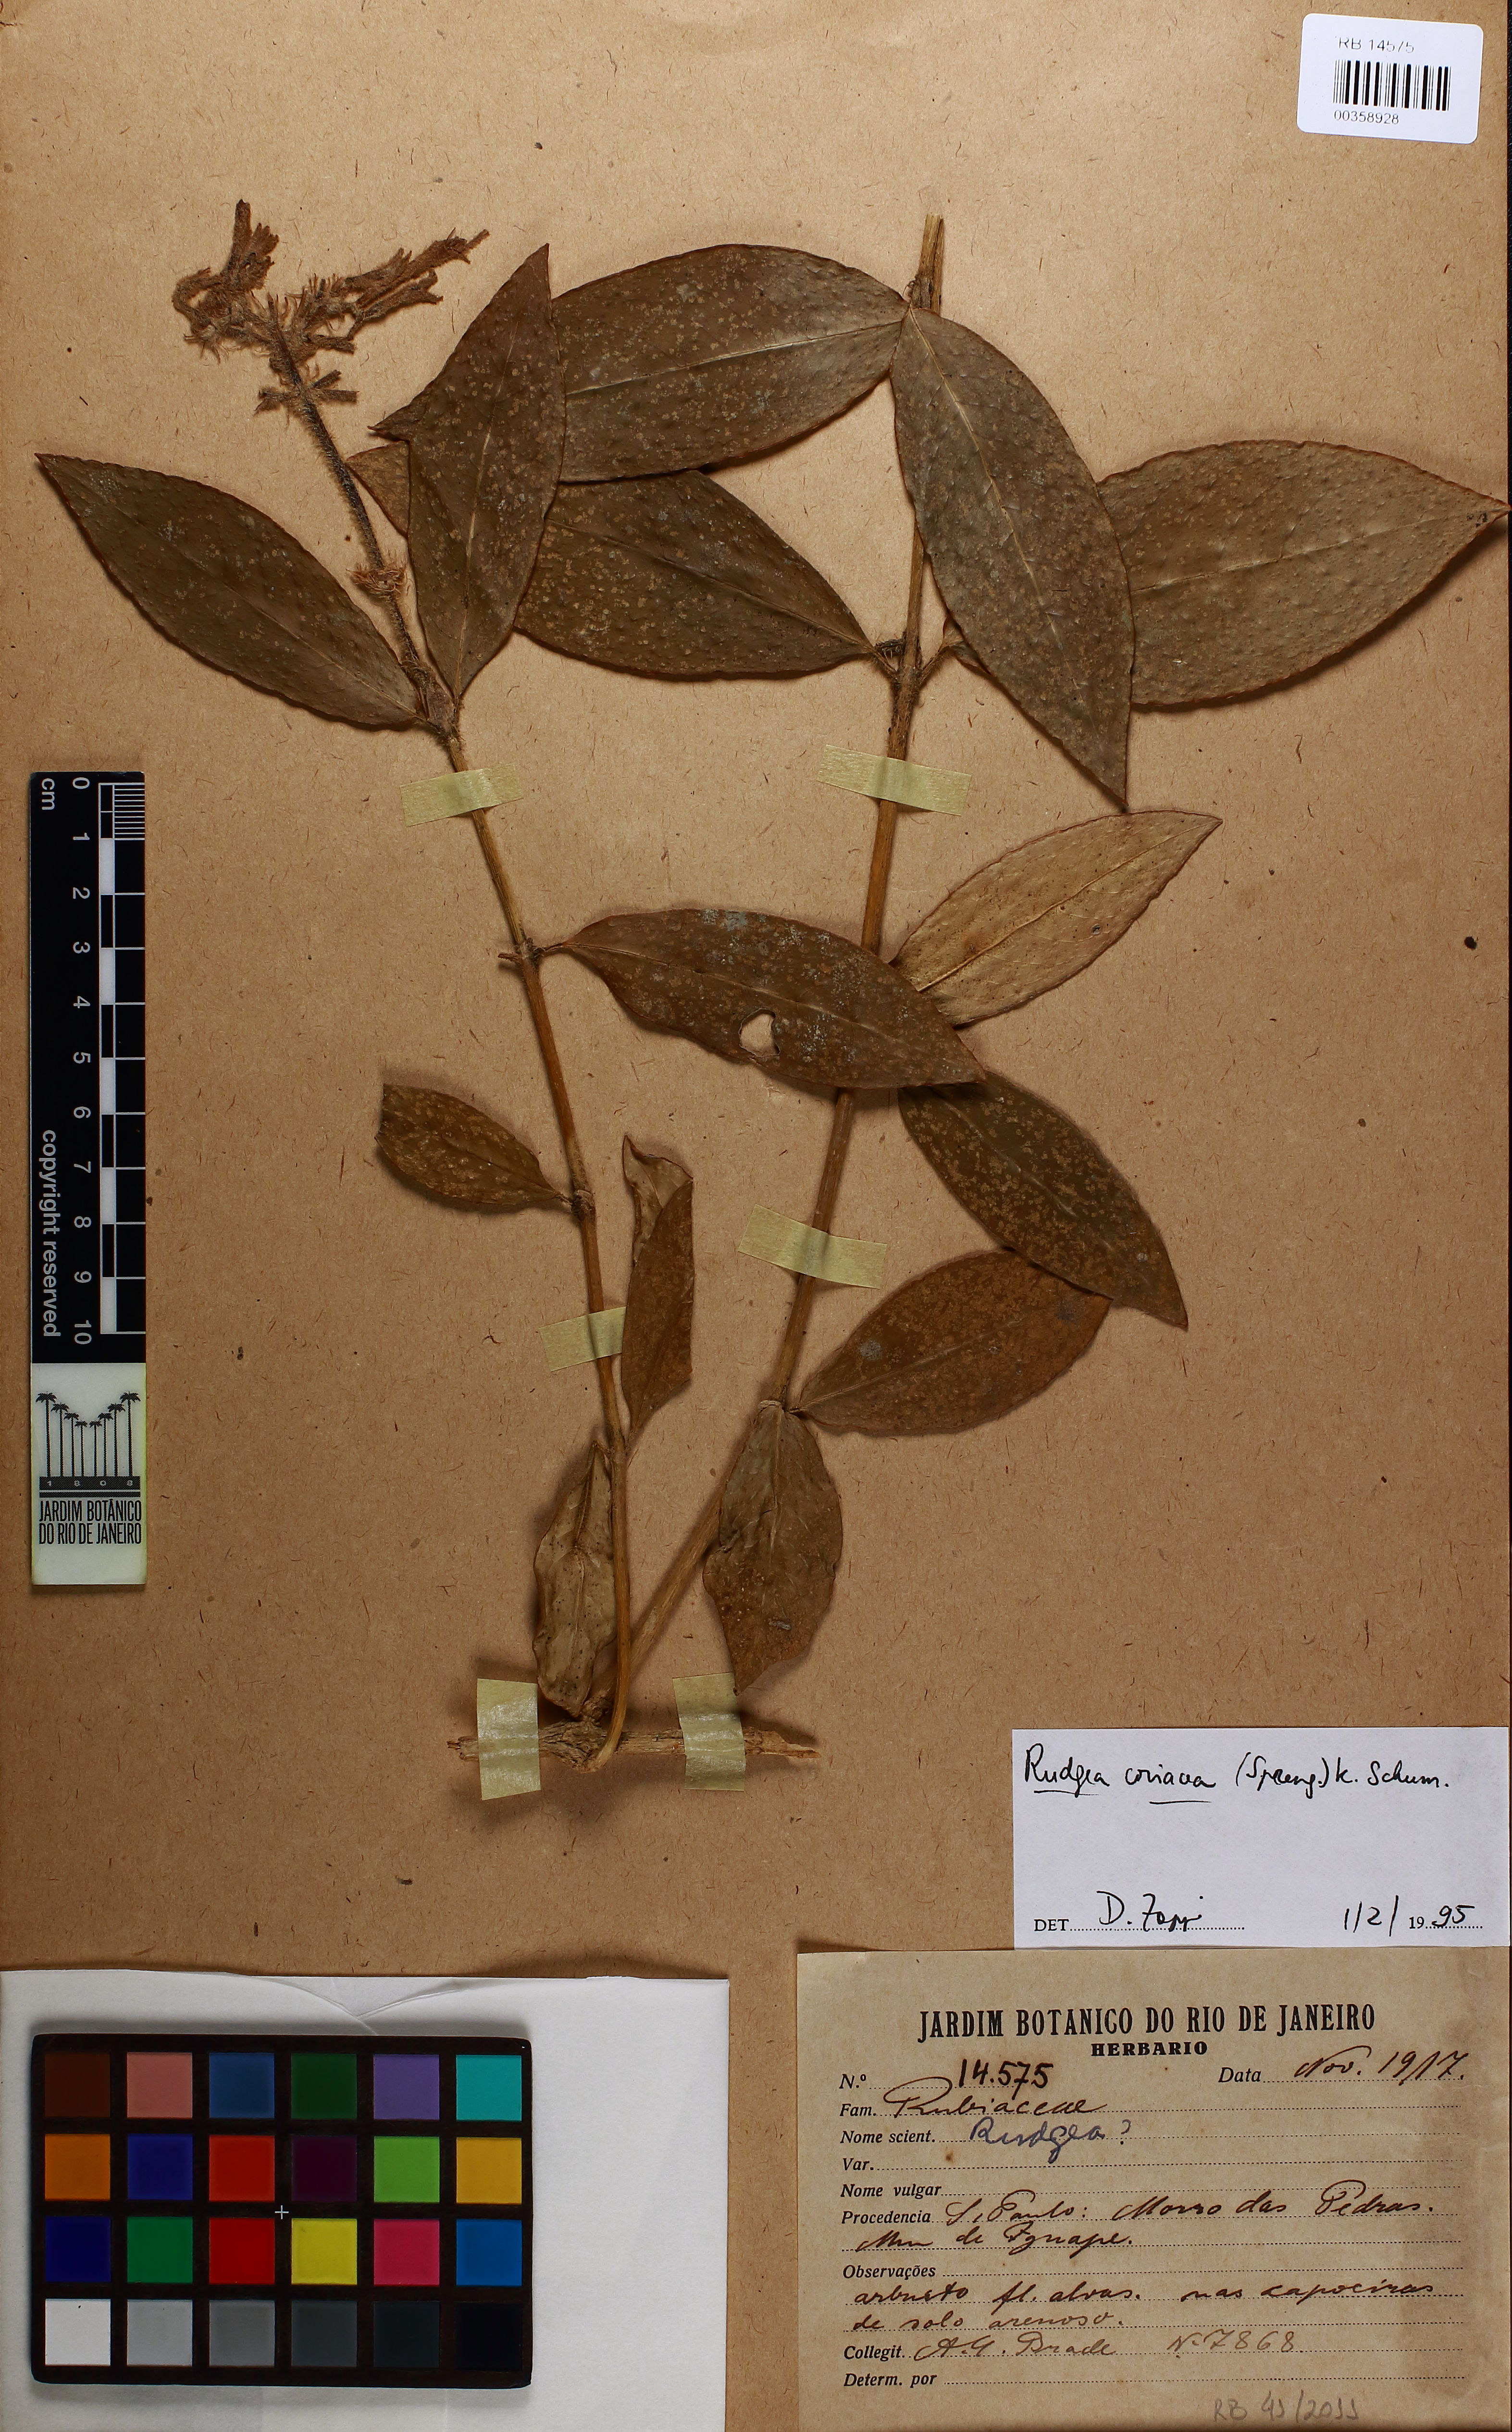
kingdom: Plantae
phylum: Tracheophyta
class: Magnoliopsida
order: Gentianales
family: Rubiaceae
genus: Rudgea
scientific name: Rudgea coriacea
